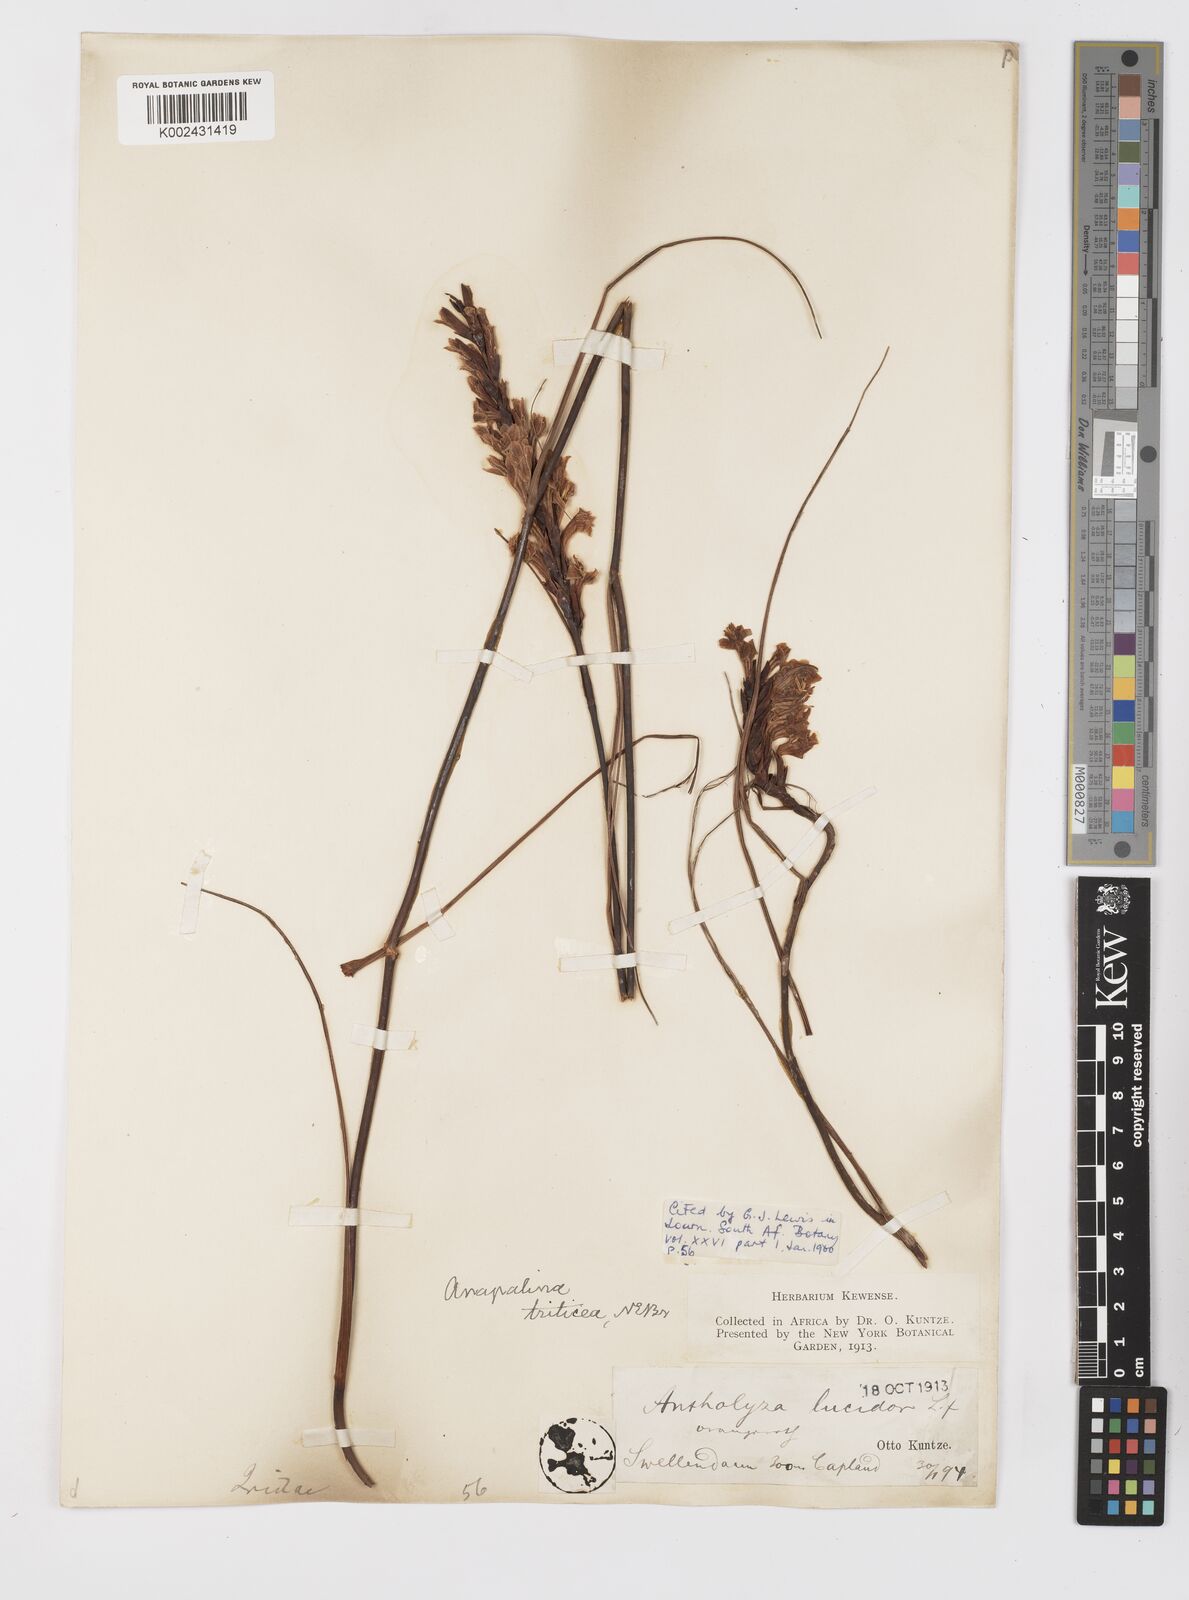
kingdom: Plantae
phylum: Tracheophyta
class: Liliopsida
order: Asparagales
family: Iridaceae
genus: Tritoniopsis
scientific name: Tritoniopsis triticea
